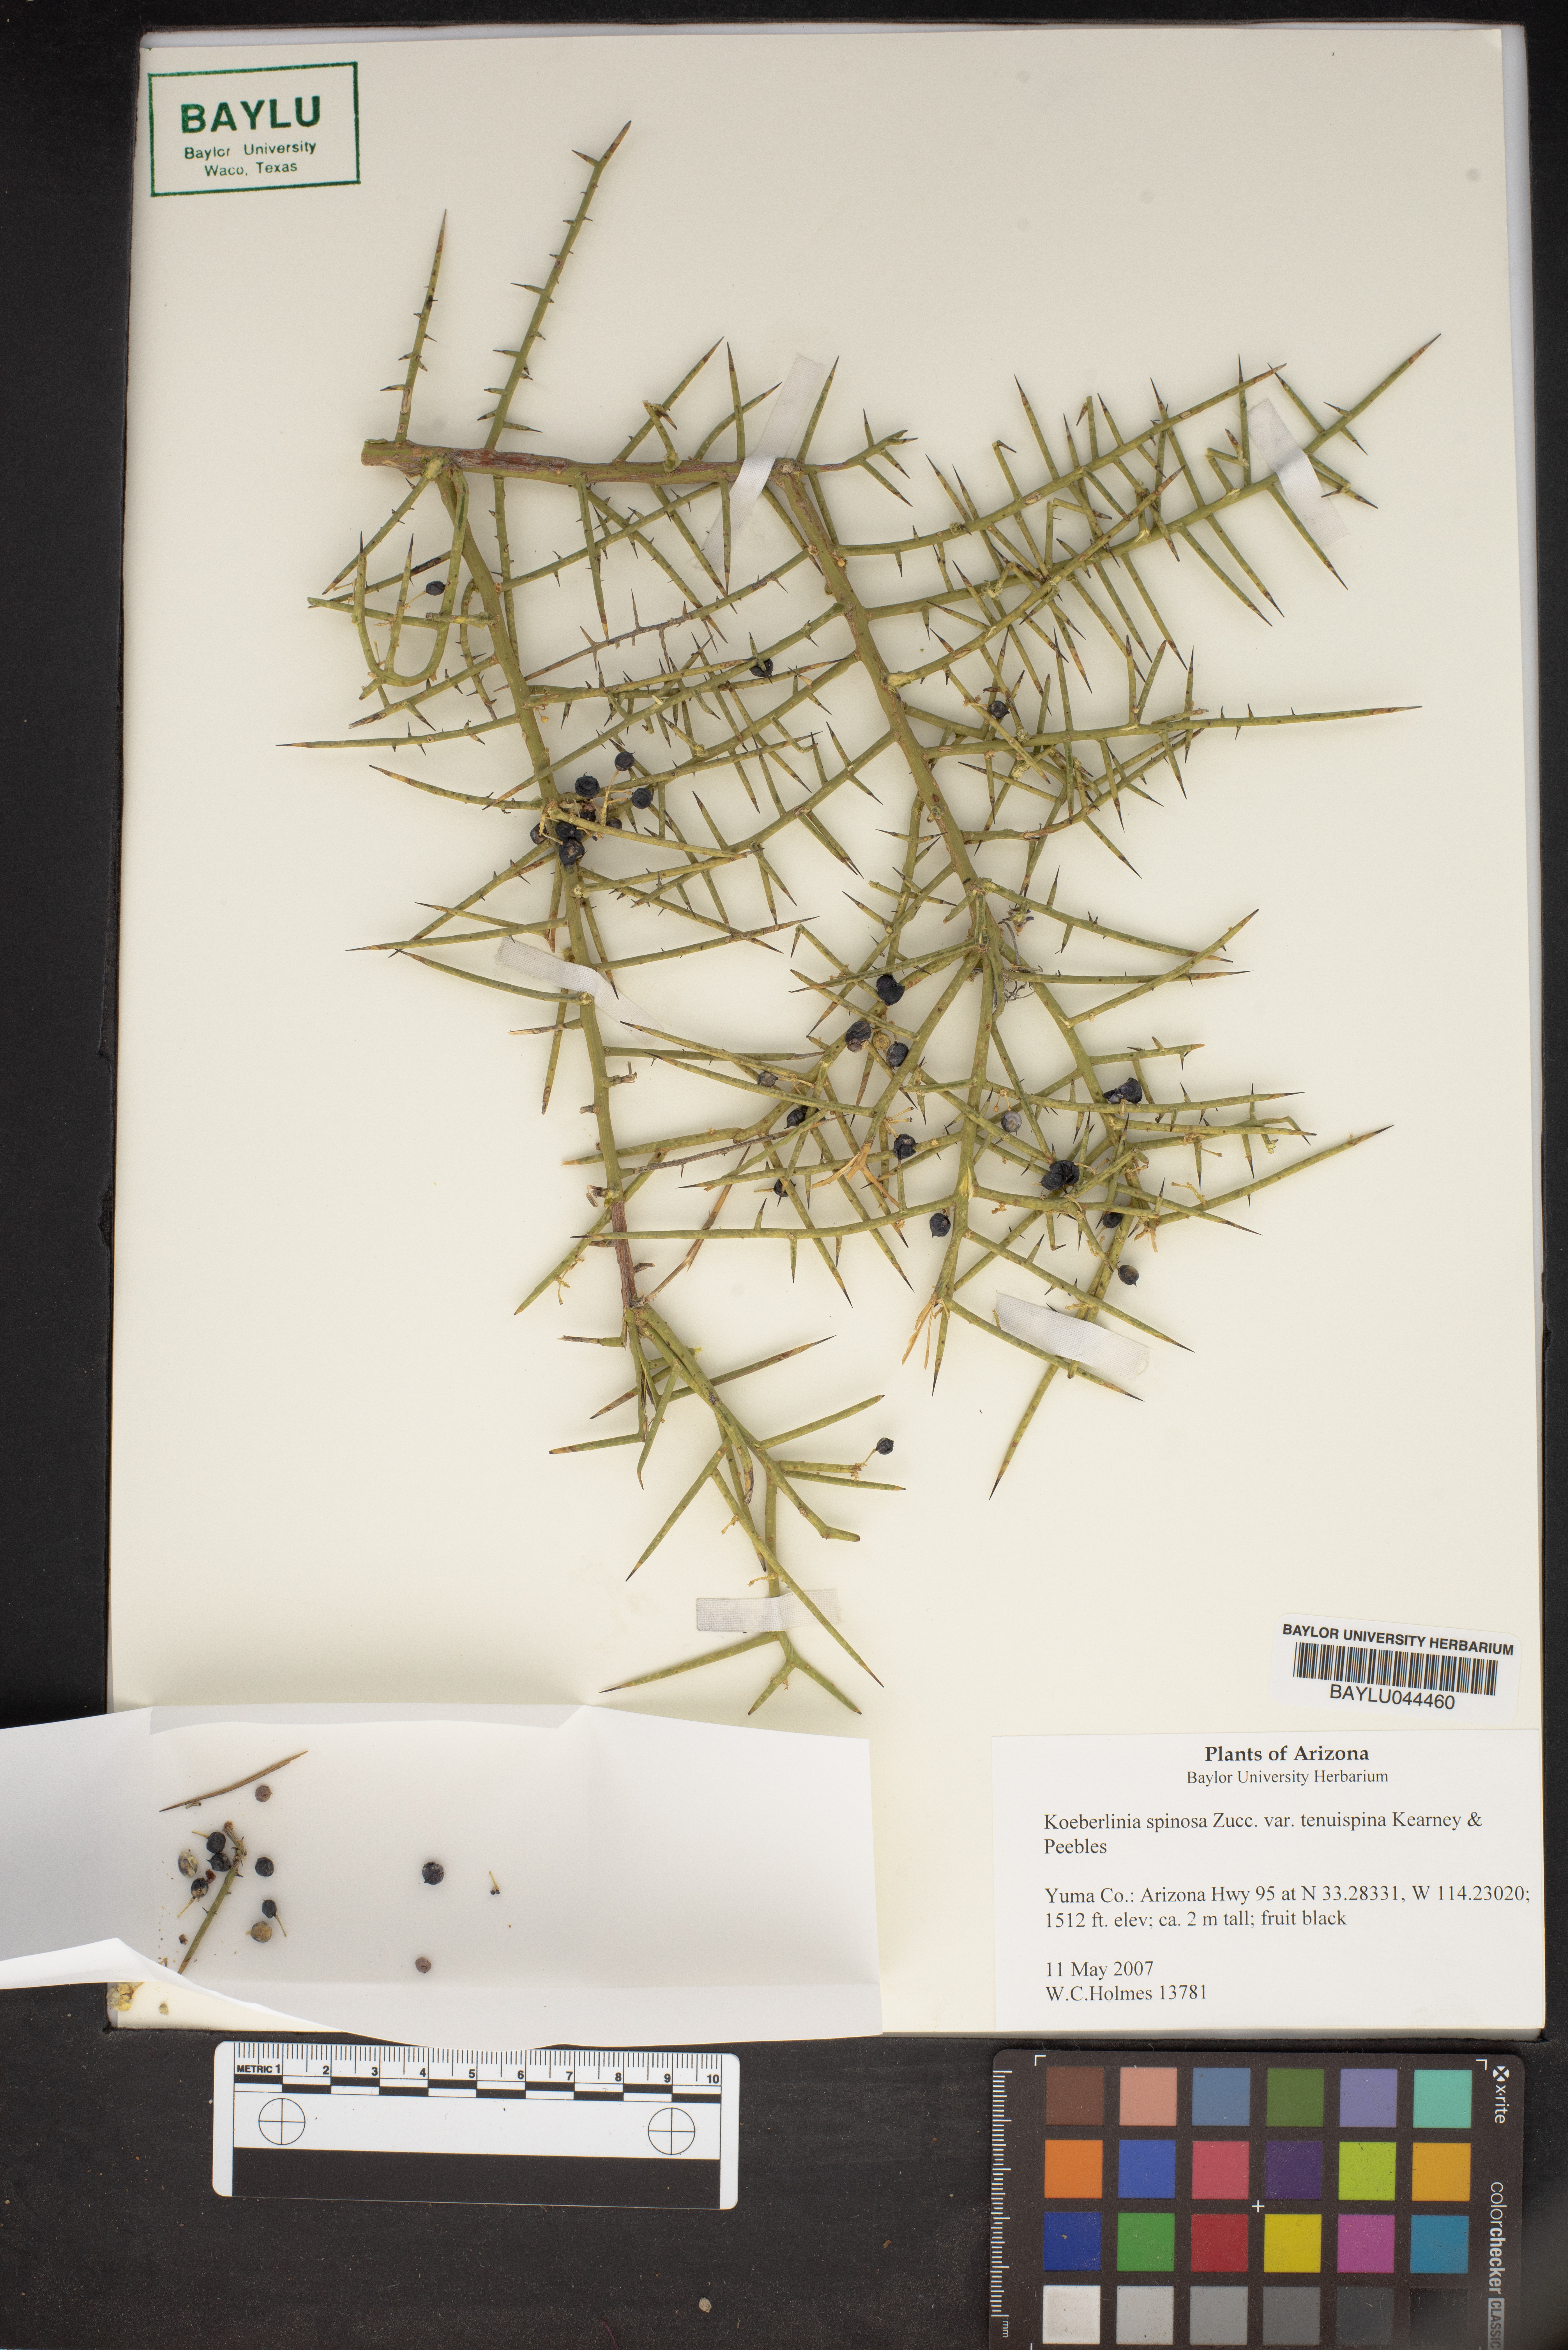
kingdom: Plantae
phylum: Tracheophyta
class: Magnoliopsida
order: Brassicales
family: Koeberliniaceae
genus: Koeberlinia
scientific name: Koeberlinia spinosa
